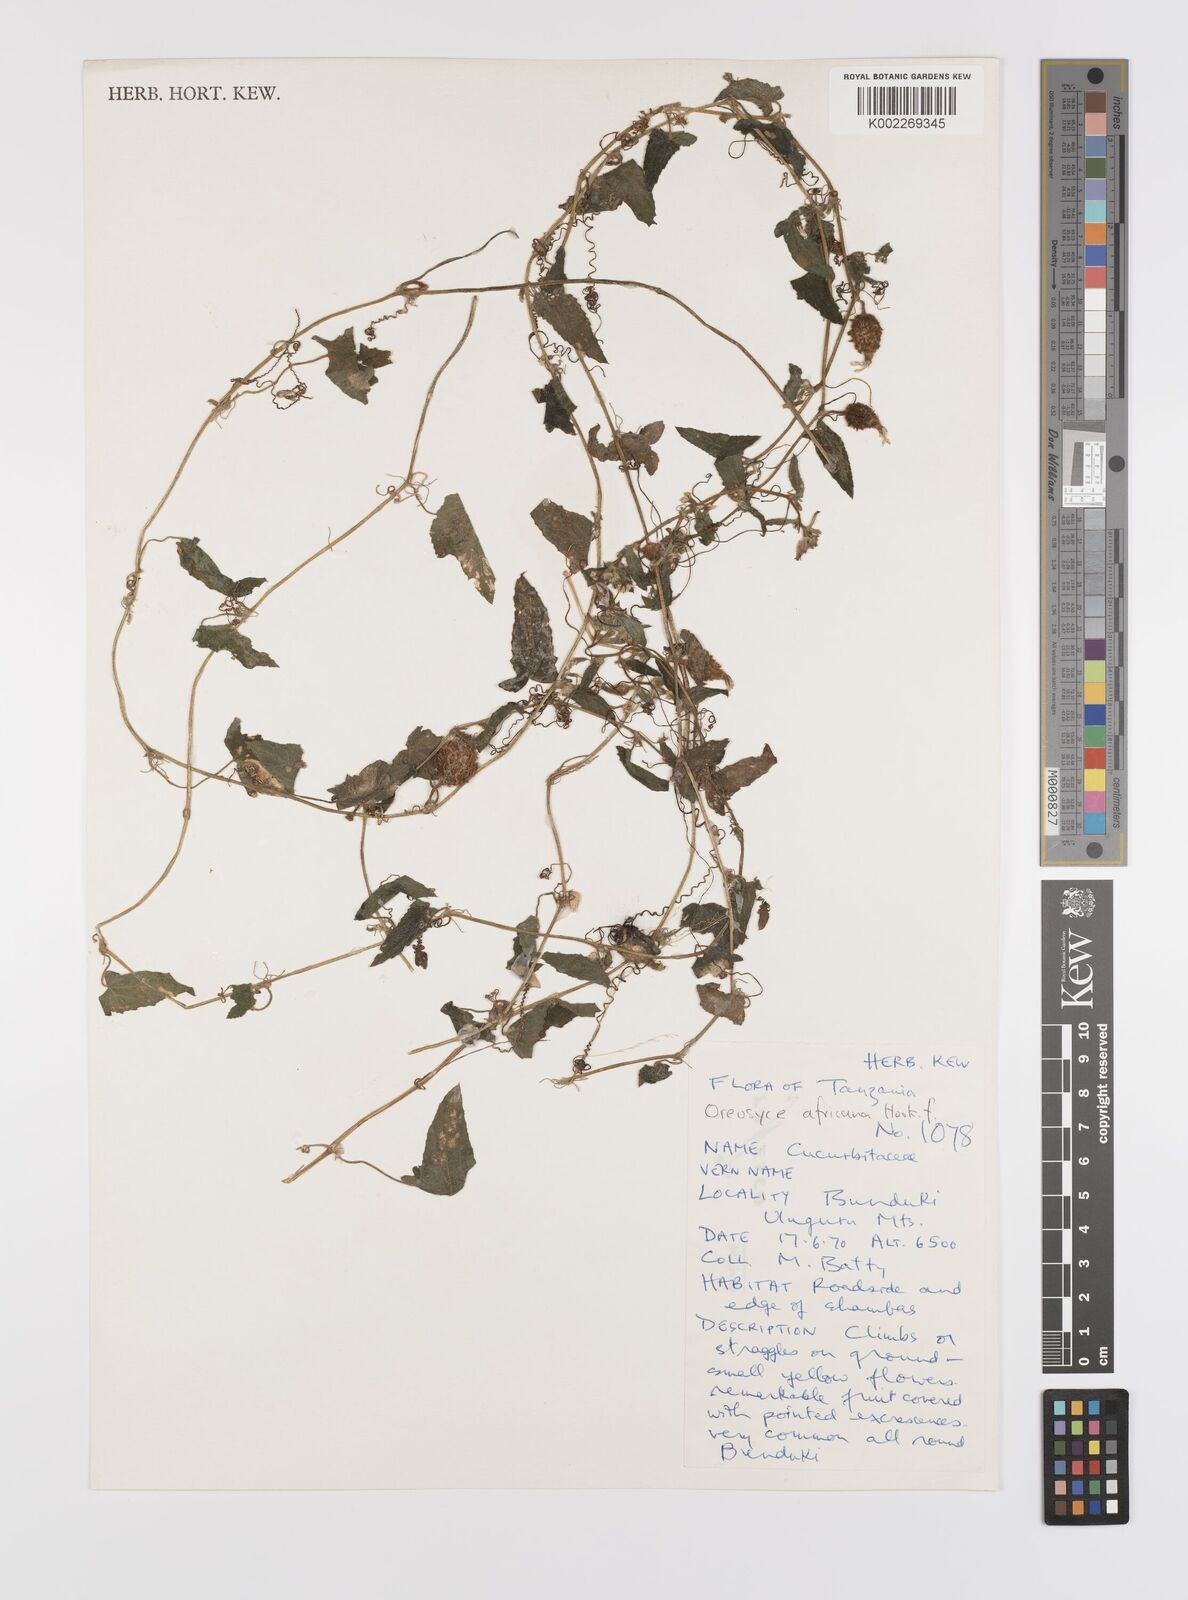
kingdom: Plantae
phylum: Tracheophyta
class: Magnoliopsida
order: Cucurbitales
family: Cucurbitaceae
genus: Cucumis
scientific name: Cucumis oreosyce
